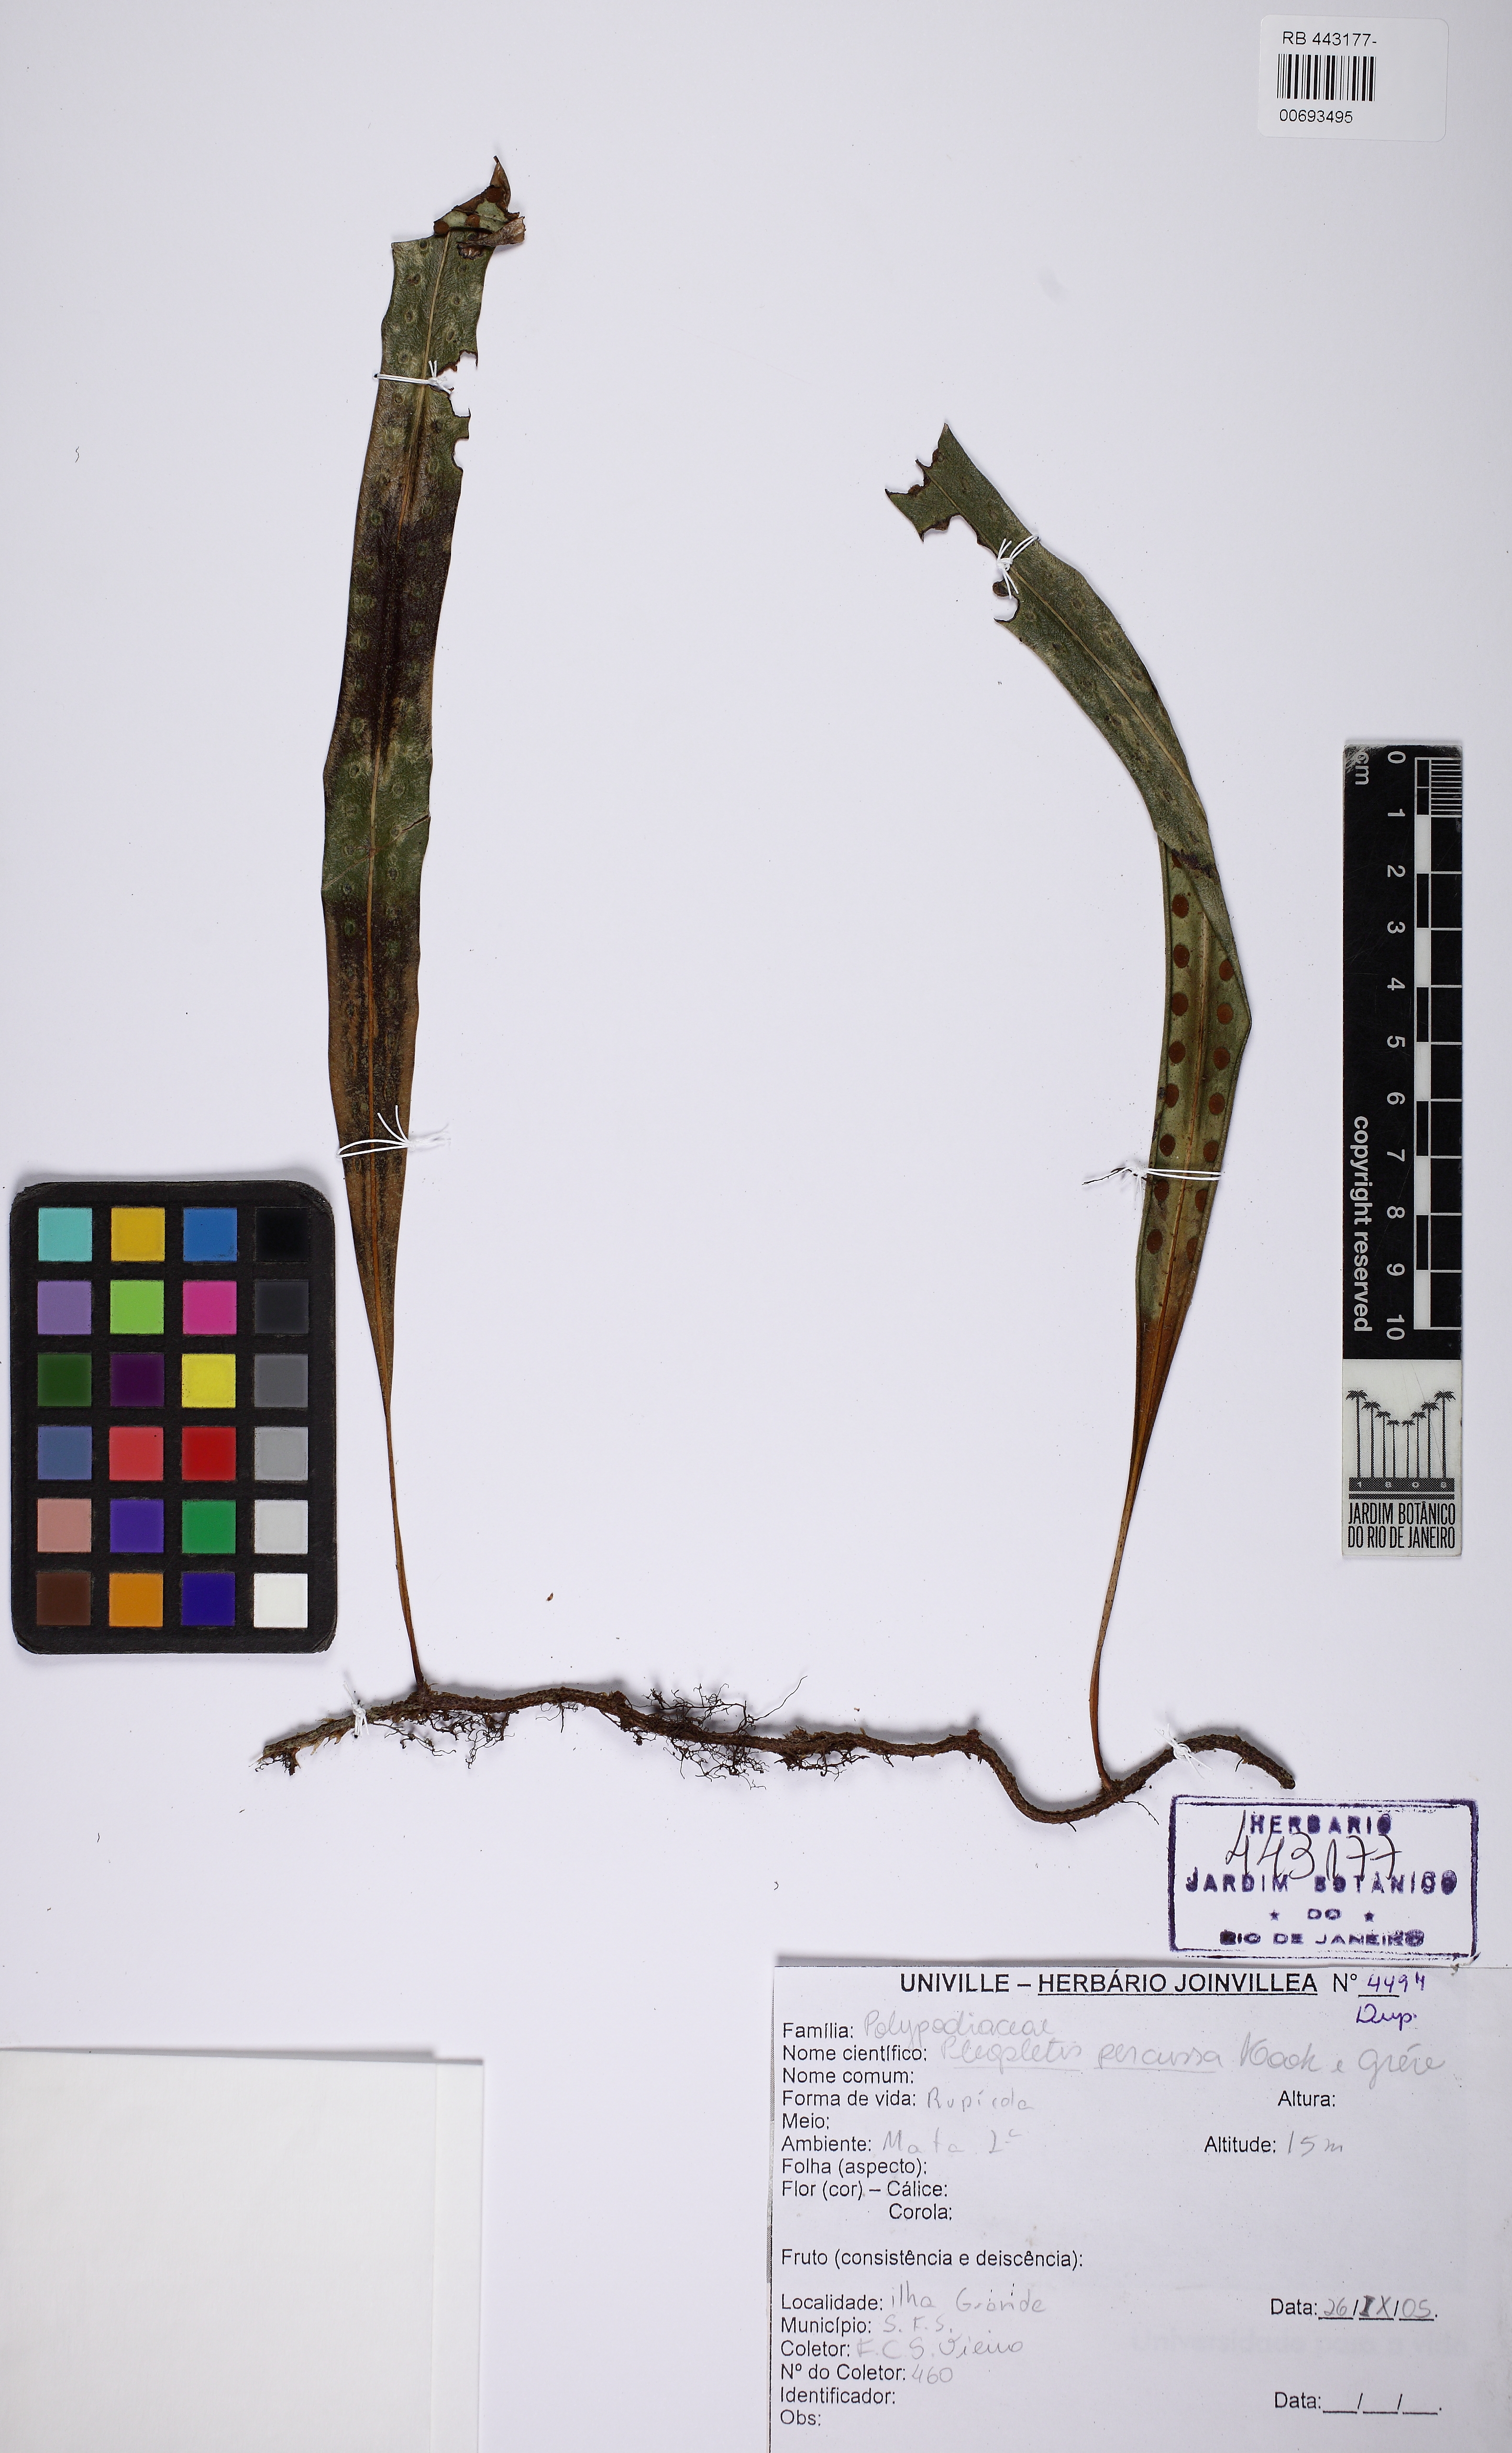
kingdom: Plantae
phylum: Tracheophyta
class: Polypodiopsida
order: Polypodiales
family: Polypodiaceae
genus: Microgramma
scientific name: Microgramma percussa
